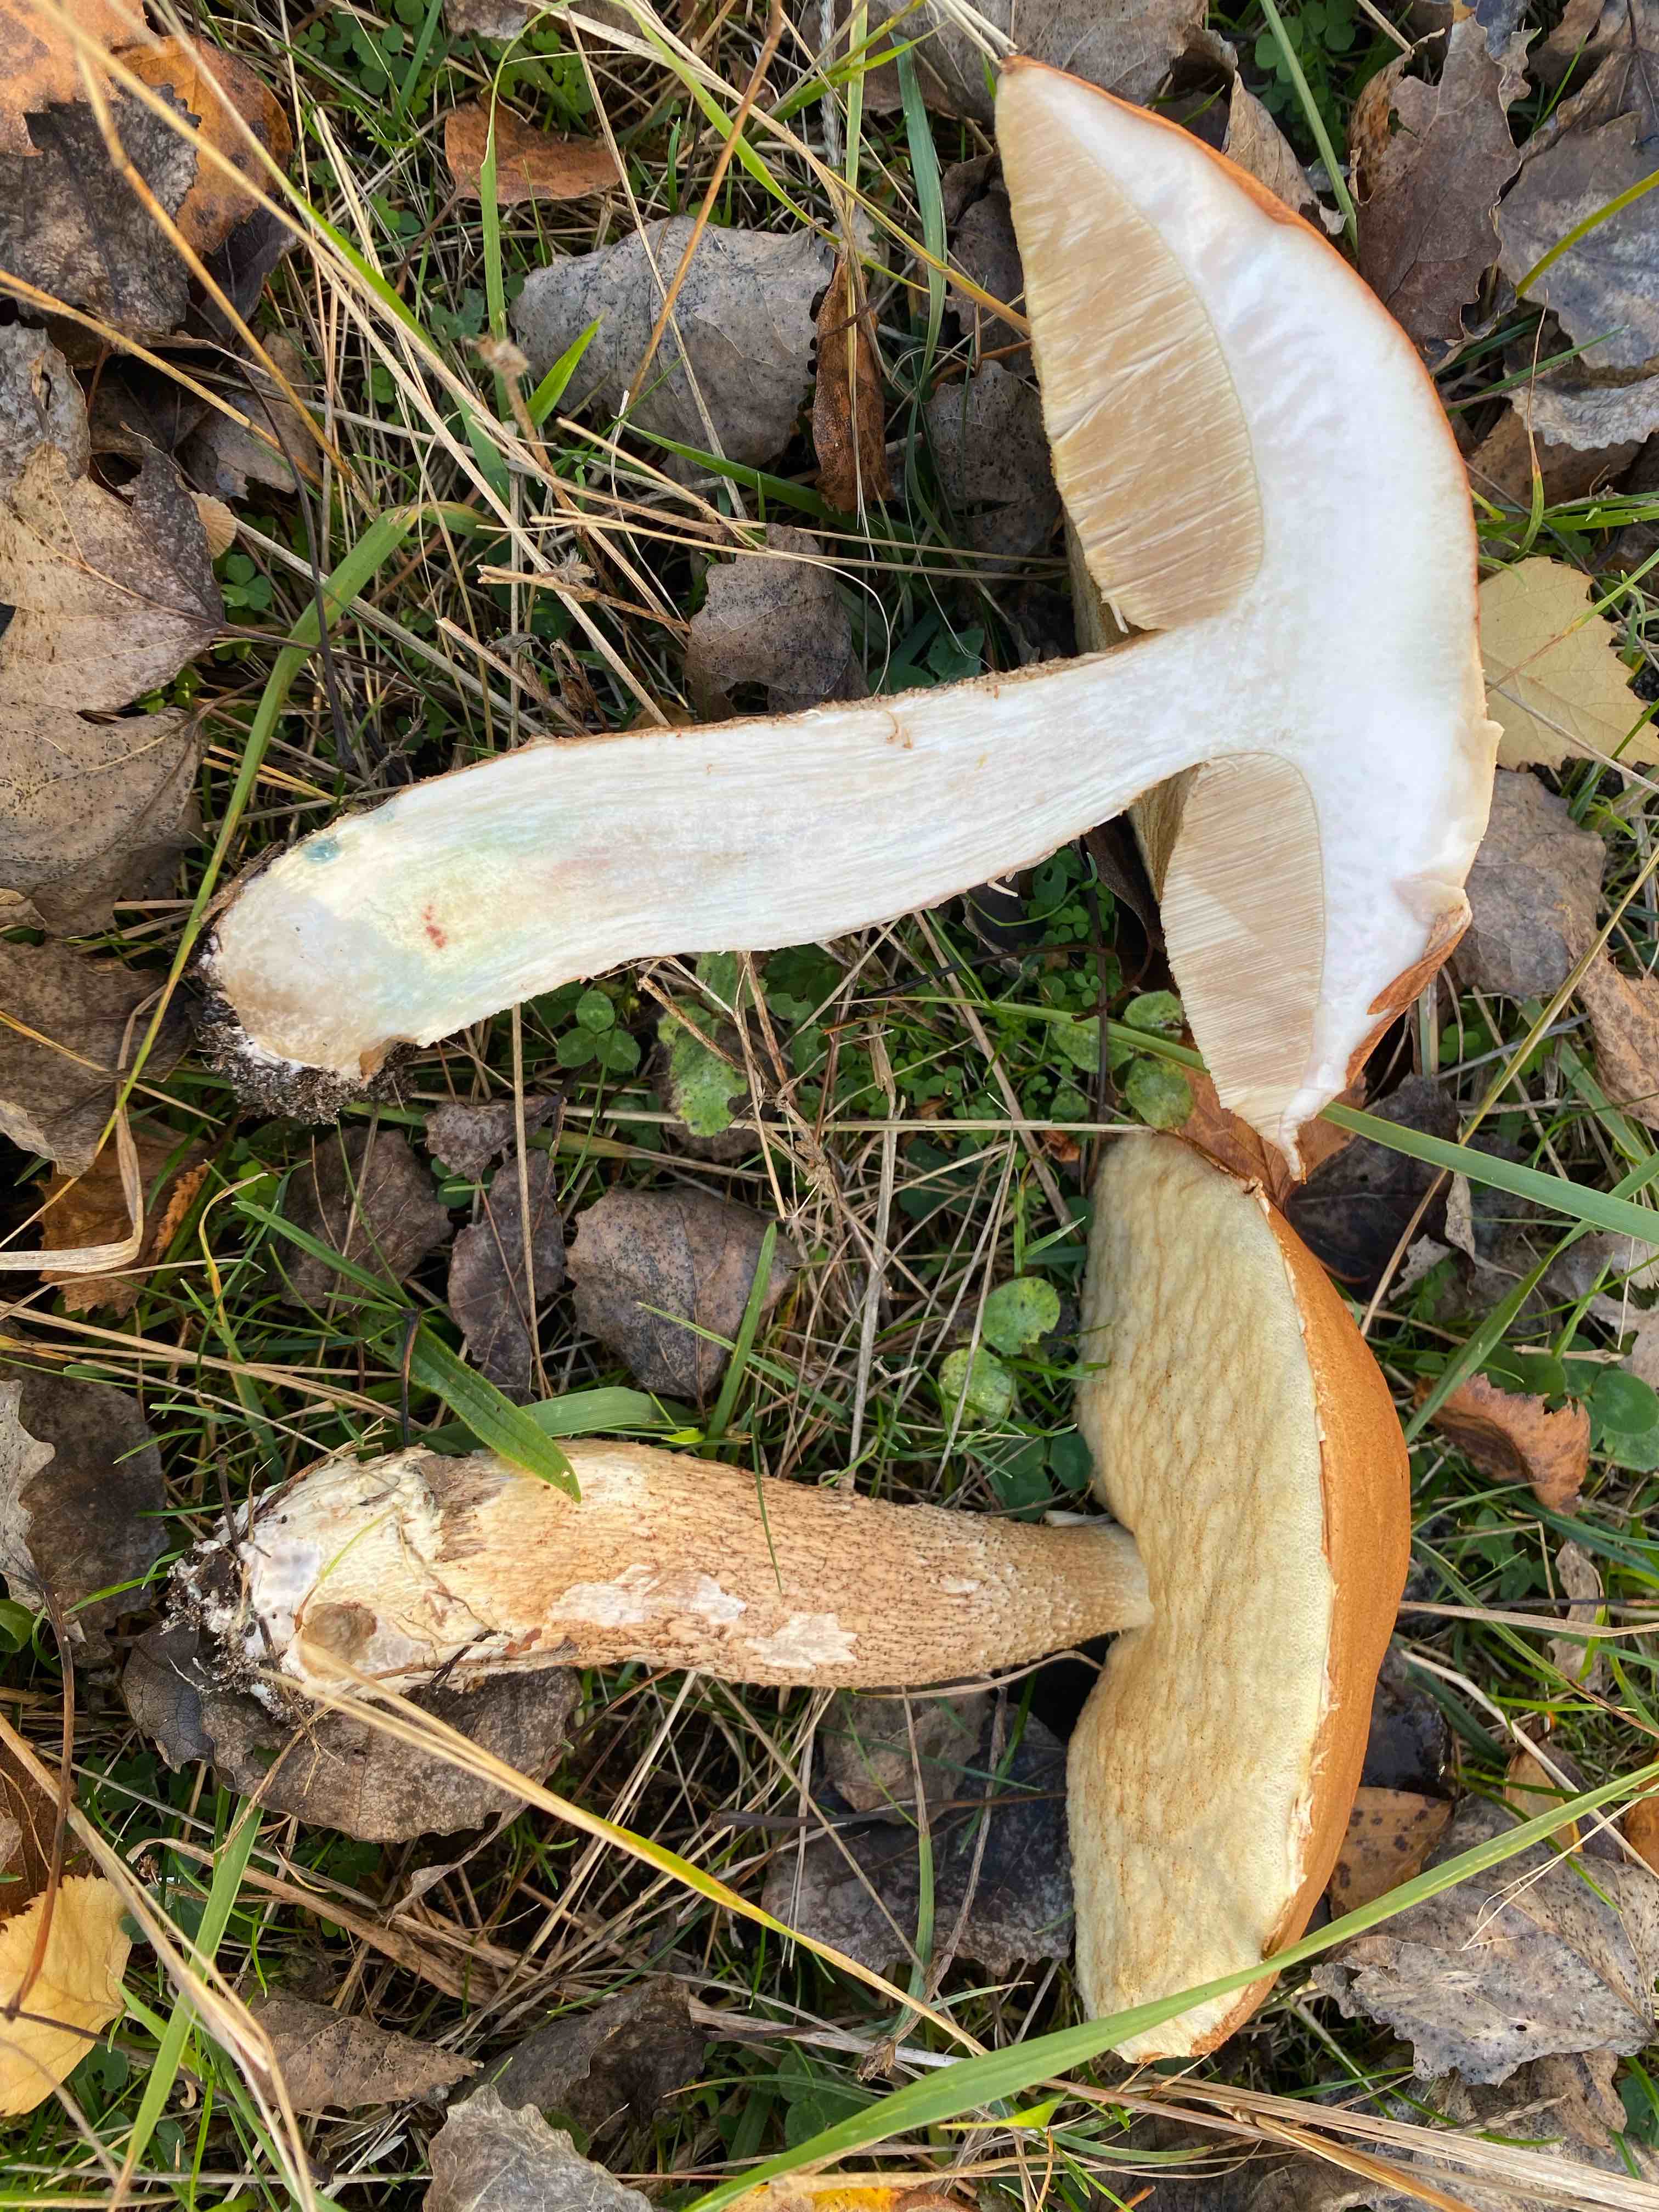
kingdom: Fungi
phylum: Basidiomycota
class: Agaricomycetes
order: Boletales
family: Boletaceae
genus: Leccinum
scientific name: Leccinum albostipitatum
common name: aspe-skælrørhat
